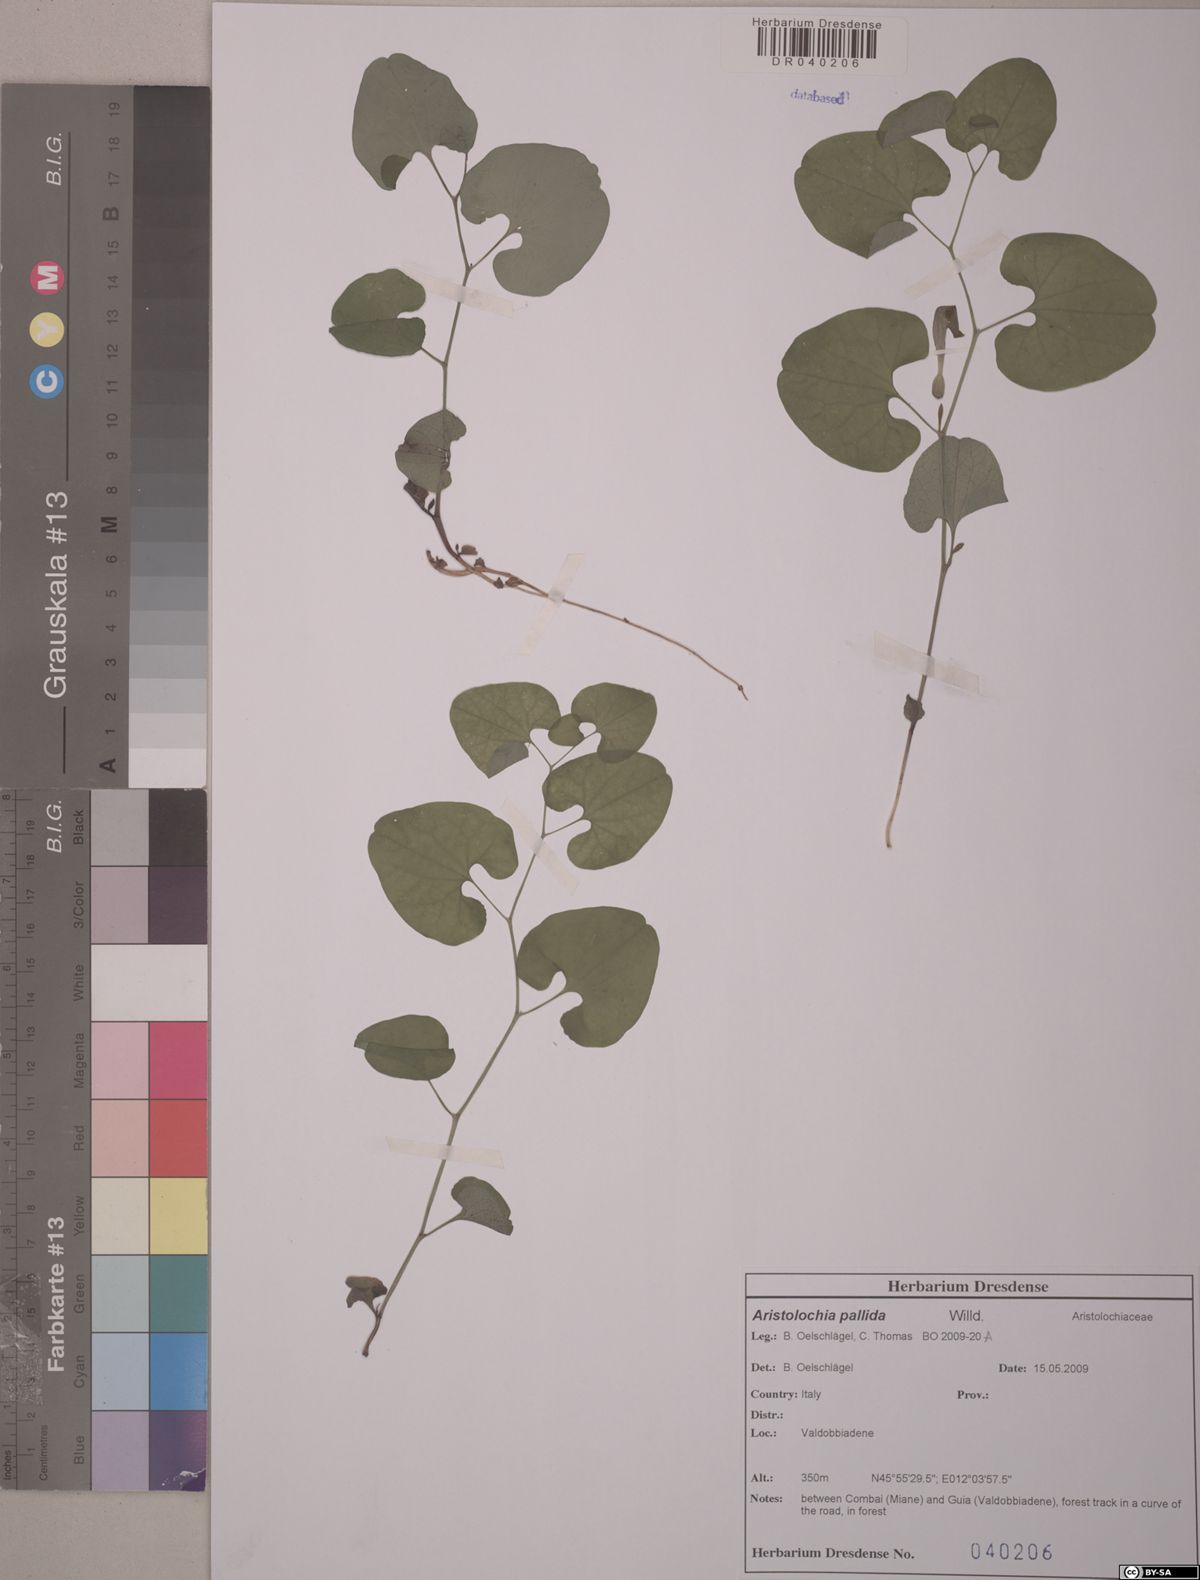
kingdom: Plantae
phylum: Tracheophyta
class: Magnoliopsida
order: Piperales
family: Aristolochiaceae
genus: Aristolochia
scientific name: Aristolochia pallida
